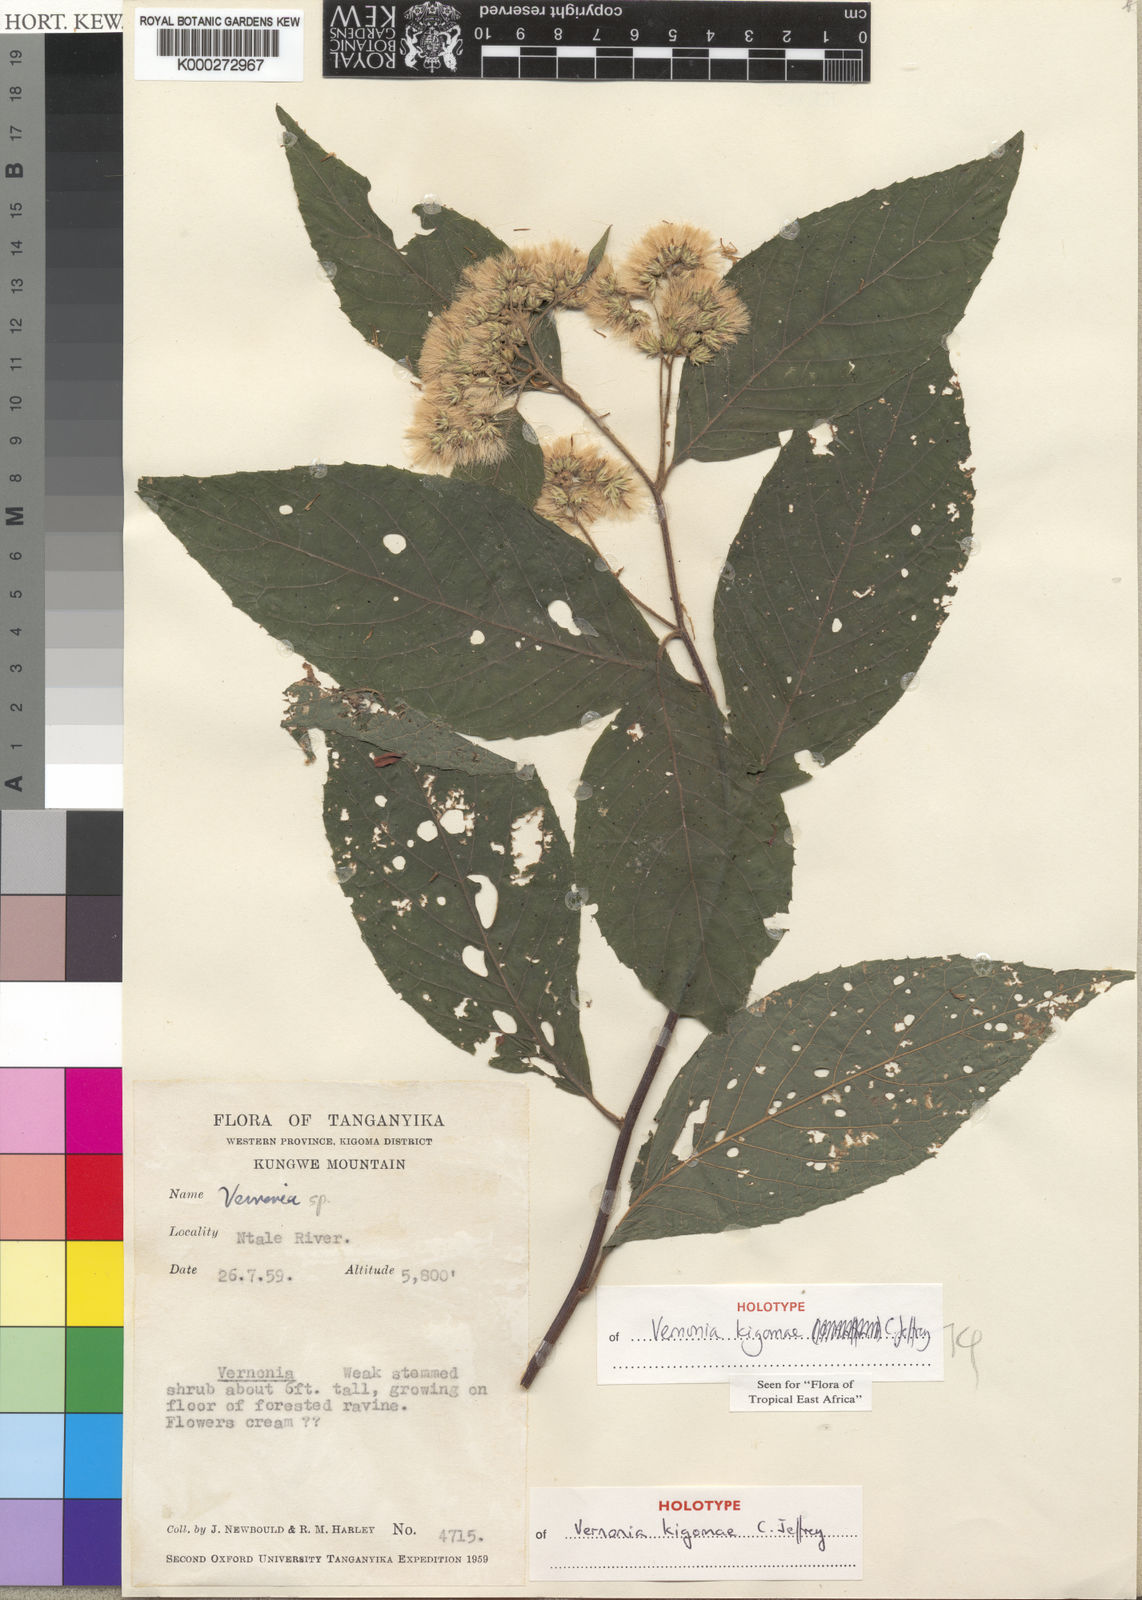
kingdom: Plantae
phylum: Tracheophyta
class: Magnoliopsida
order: Asterales
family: Asteraceae
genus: Vernonia
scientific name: Vernonia kigomae
